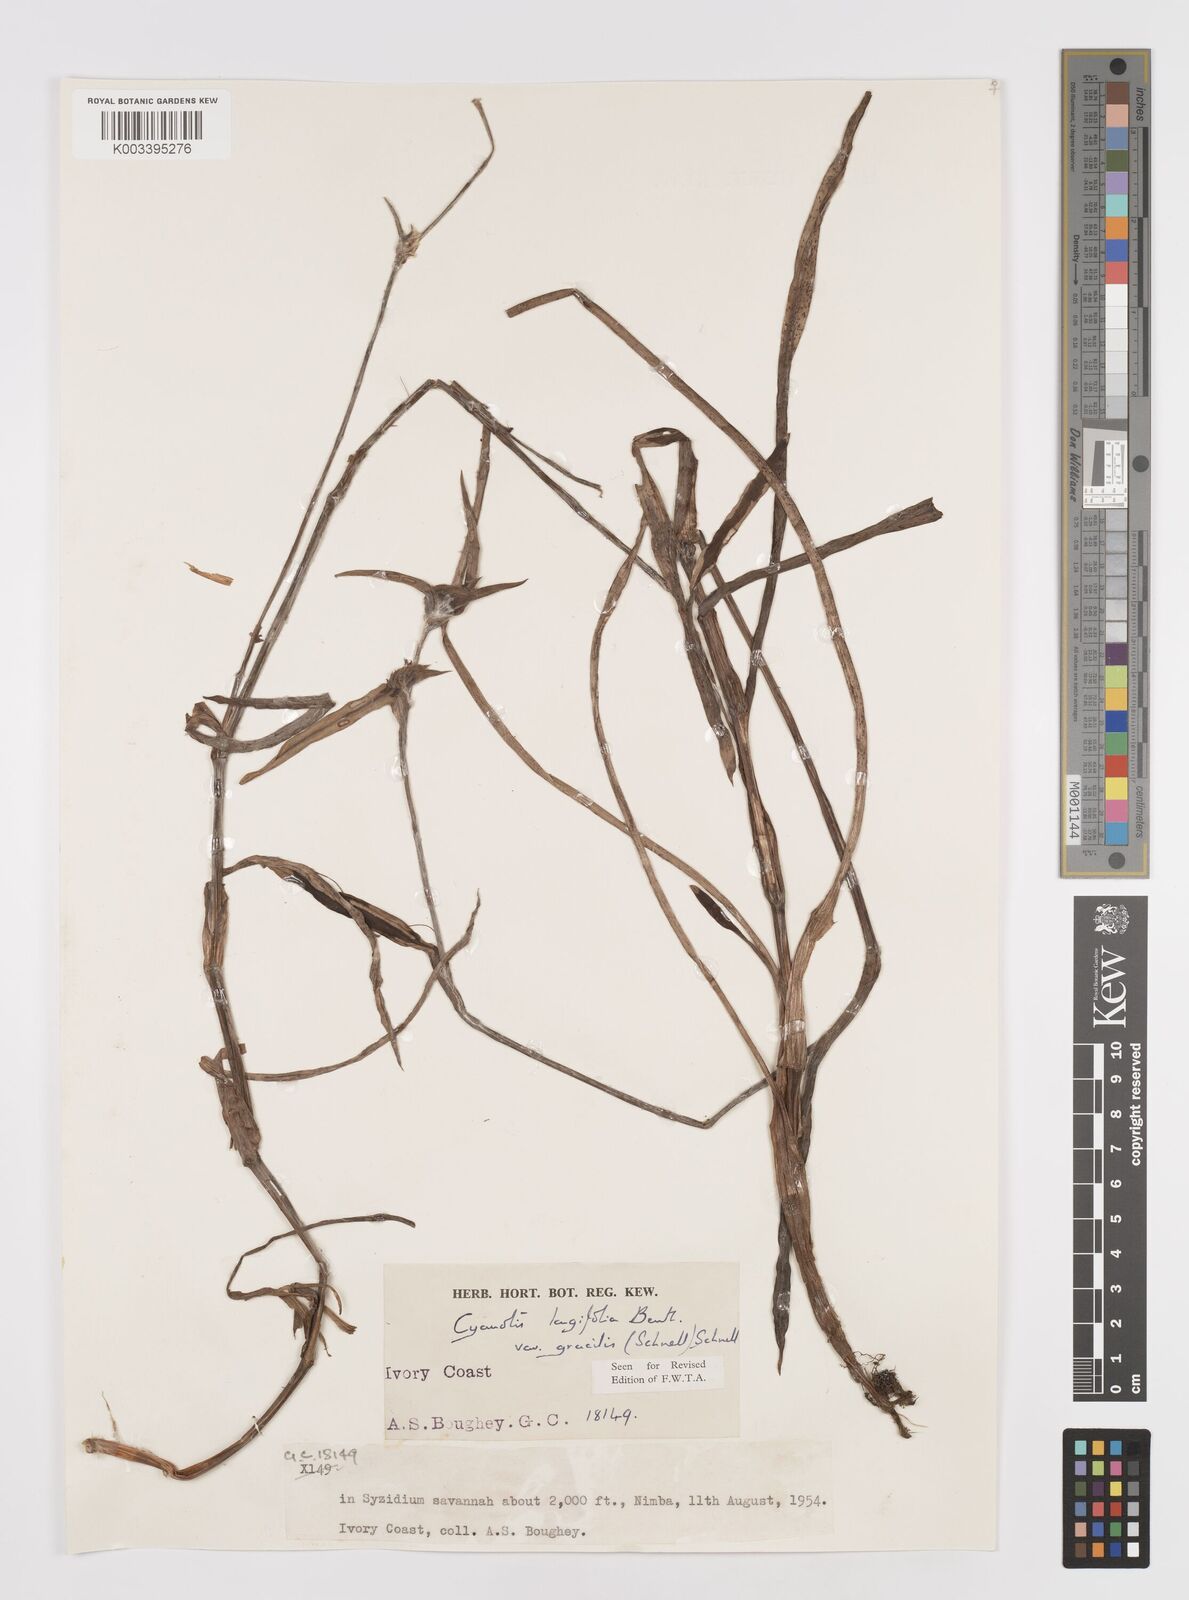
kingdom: Plantae
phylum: Tracheophyta
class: Liliopsida
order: Commelinales
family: Commelinaceae
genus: Cyanotis
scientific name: Cyanotis longifolia
